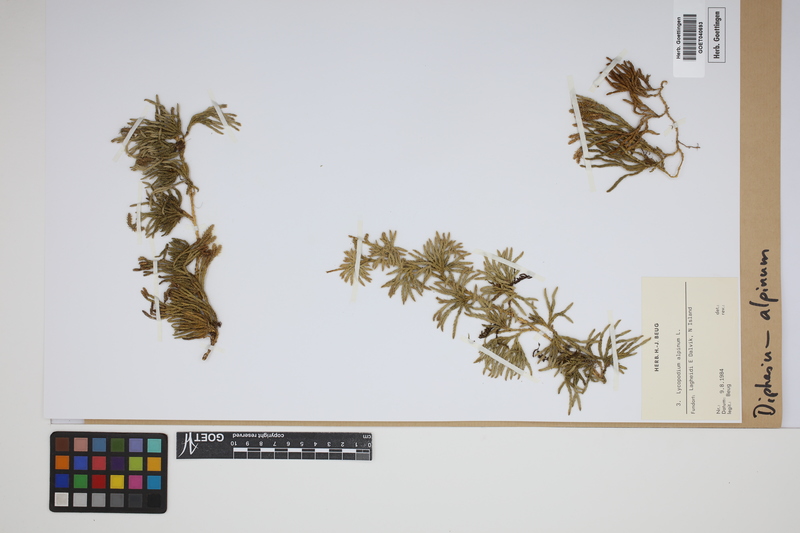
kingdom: Plantae
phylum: Tracheophyta
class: Lycopodiopsida
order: Lycopodiales
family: Lycopodiaceae
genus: Diphasiastrum
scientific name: Diphasiastrum alpinum
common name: Alpine clubmoss
